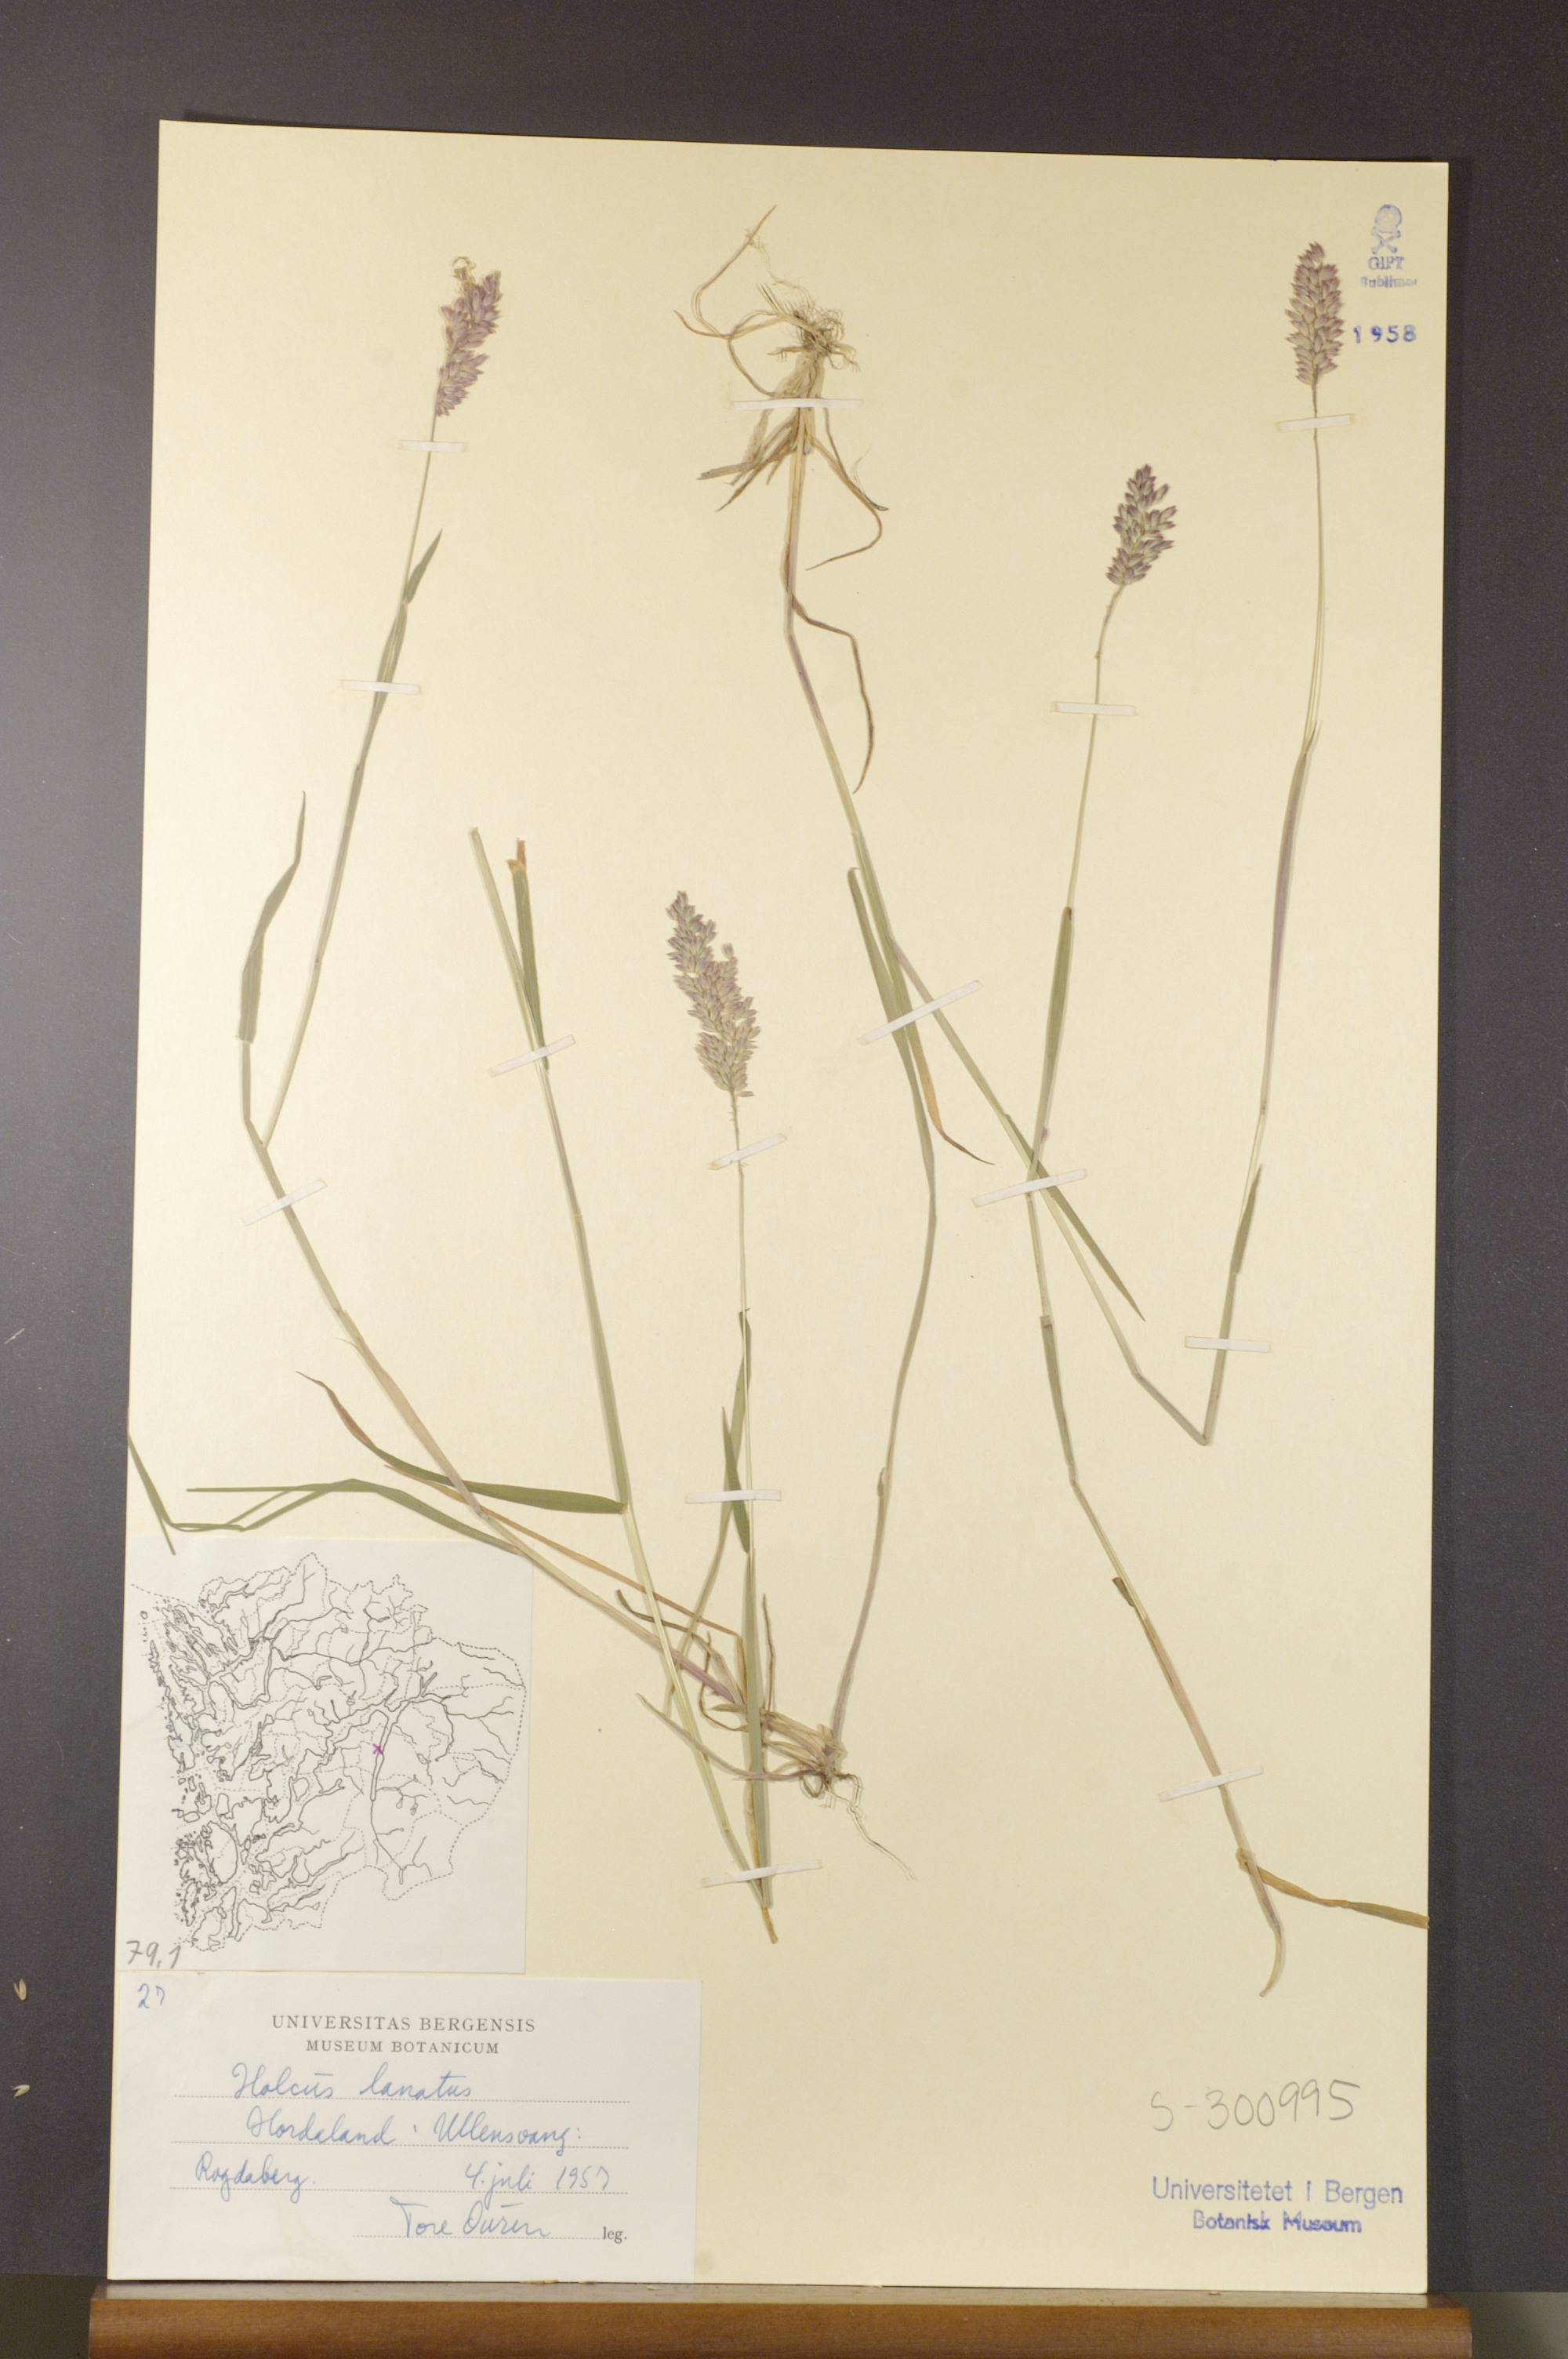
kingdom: Plantae
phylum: Tracheophyta
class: Liliopsida
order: Poales
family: Poaceae
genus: Holcus
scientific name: Holcus lanatus
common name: Yorkshire-fog
